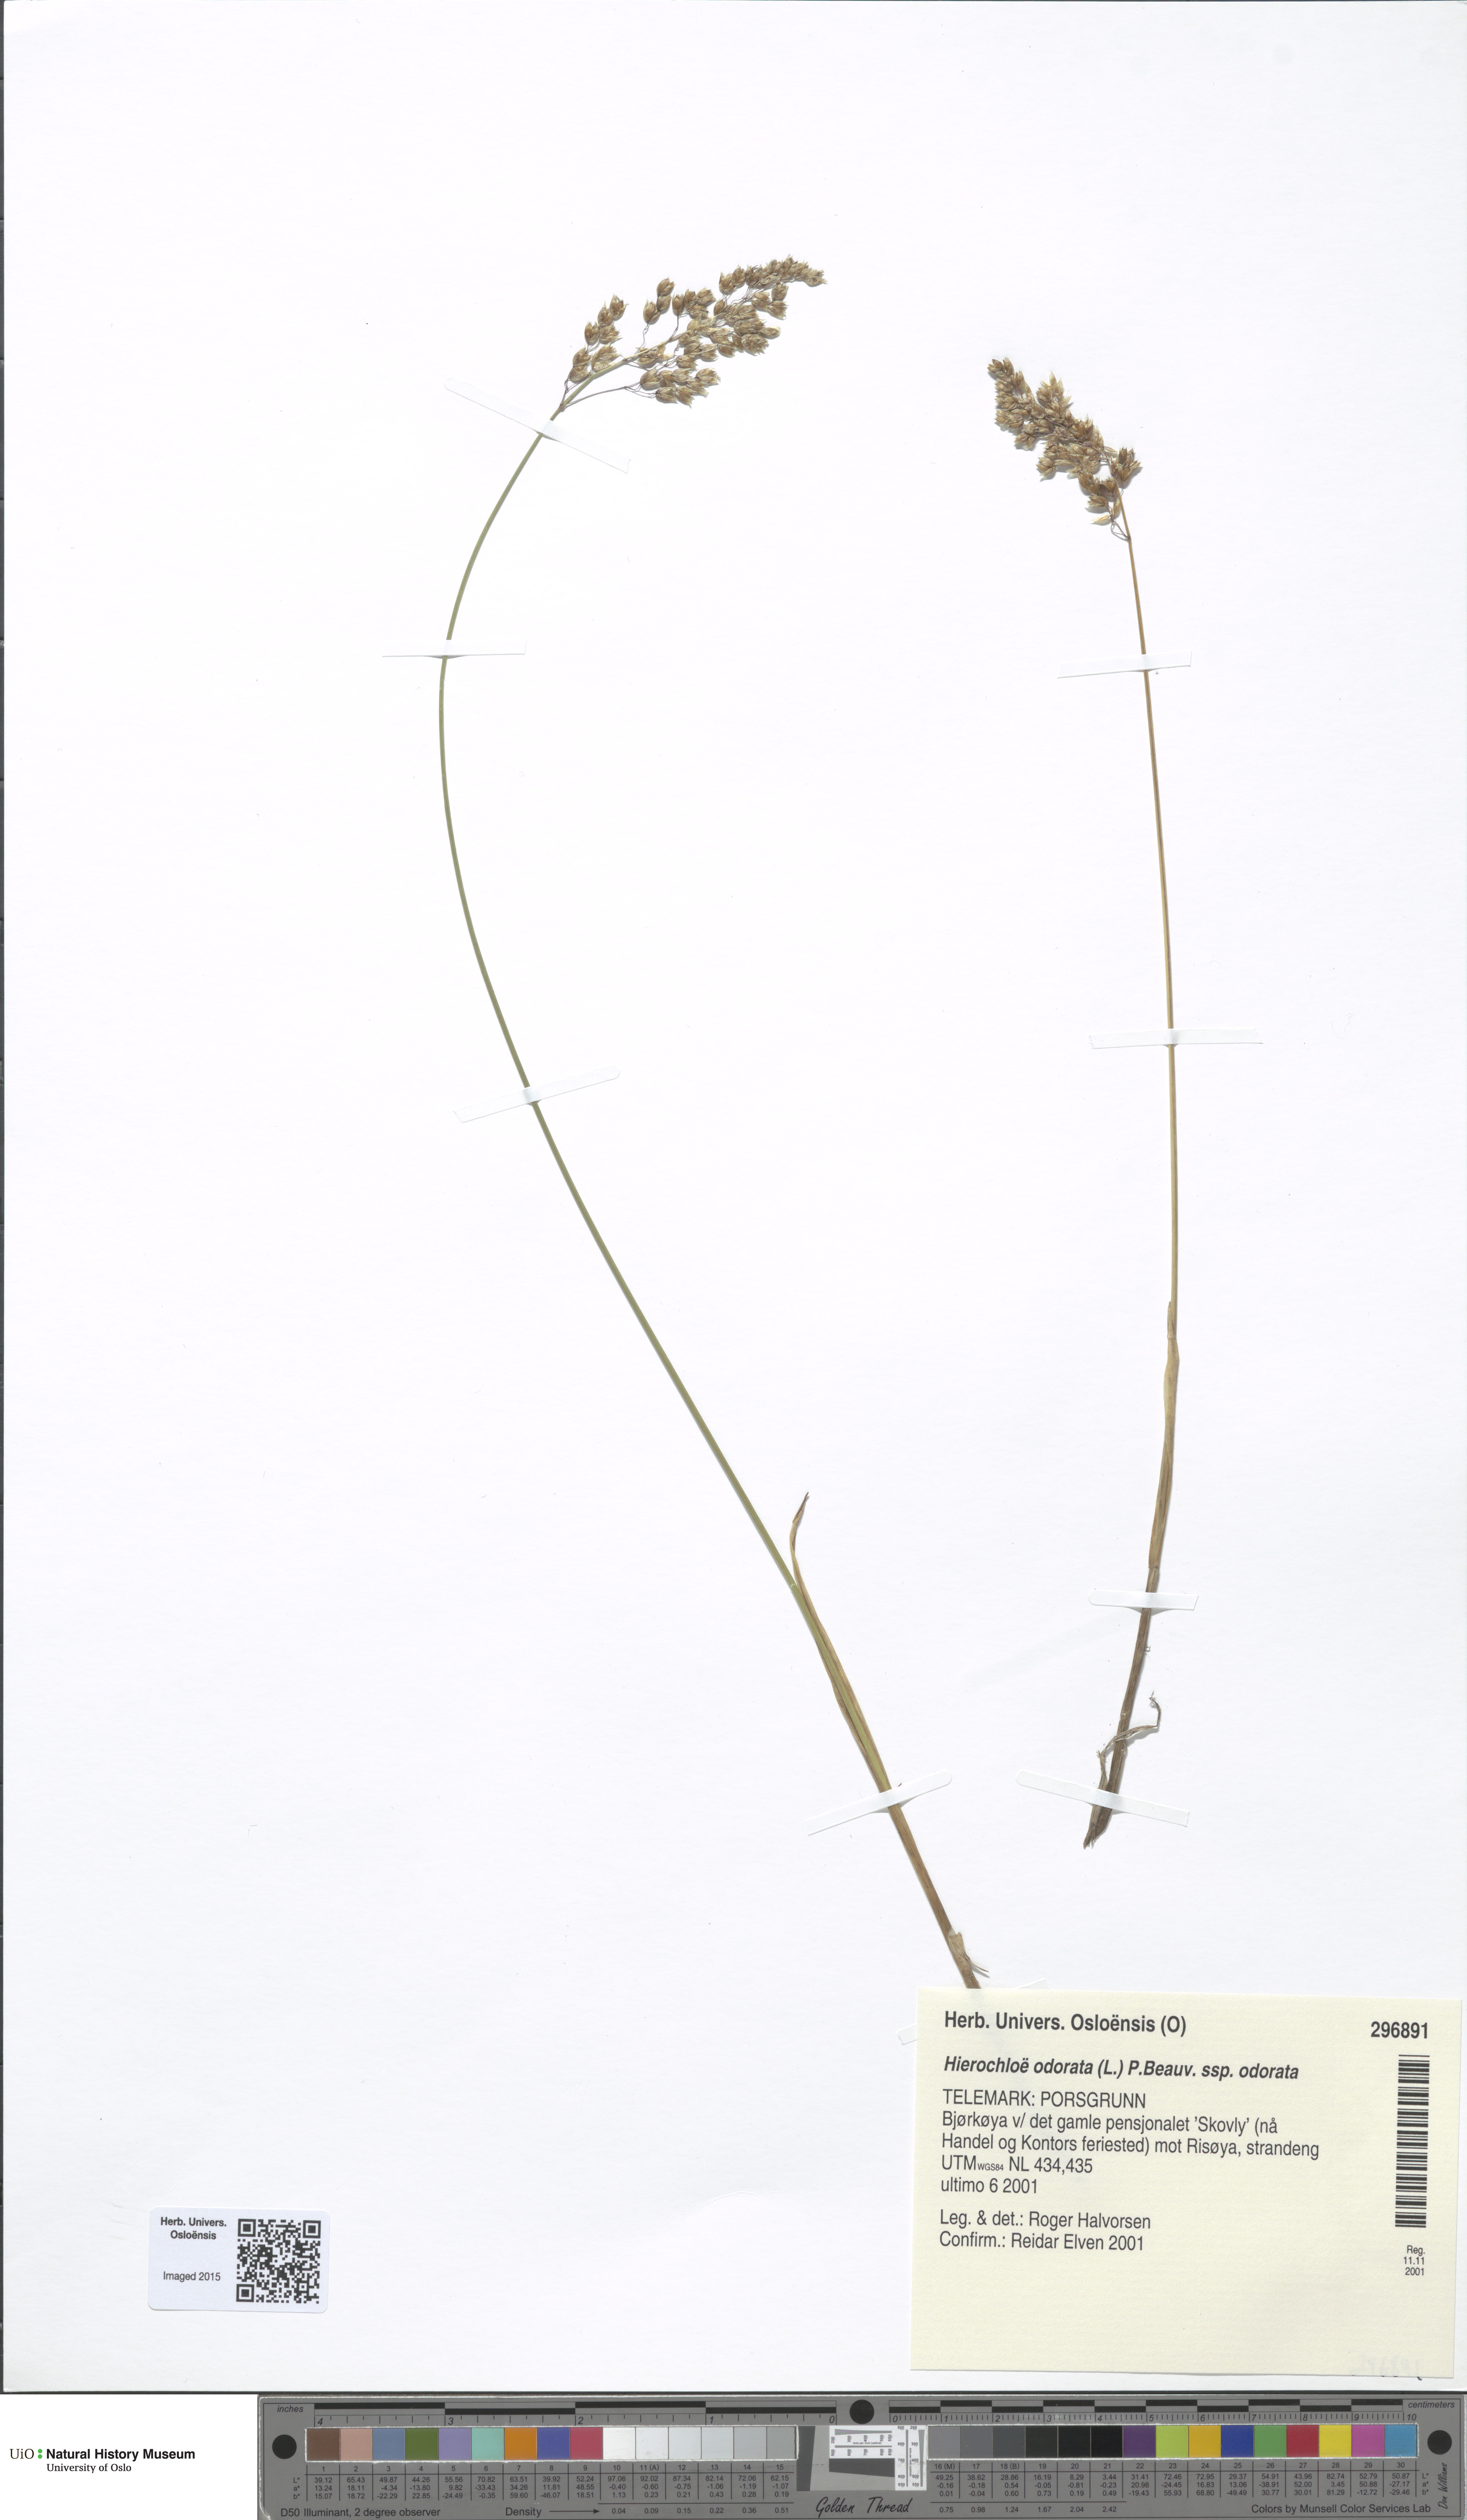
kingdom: Plantae
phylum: Tracheophyta
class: Liliopsida
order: Poales
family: Poaceae
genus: Anthoxanthum
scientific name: Anthoxanthum nitens
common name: Holy grass
